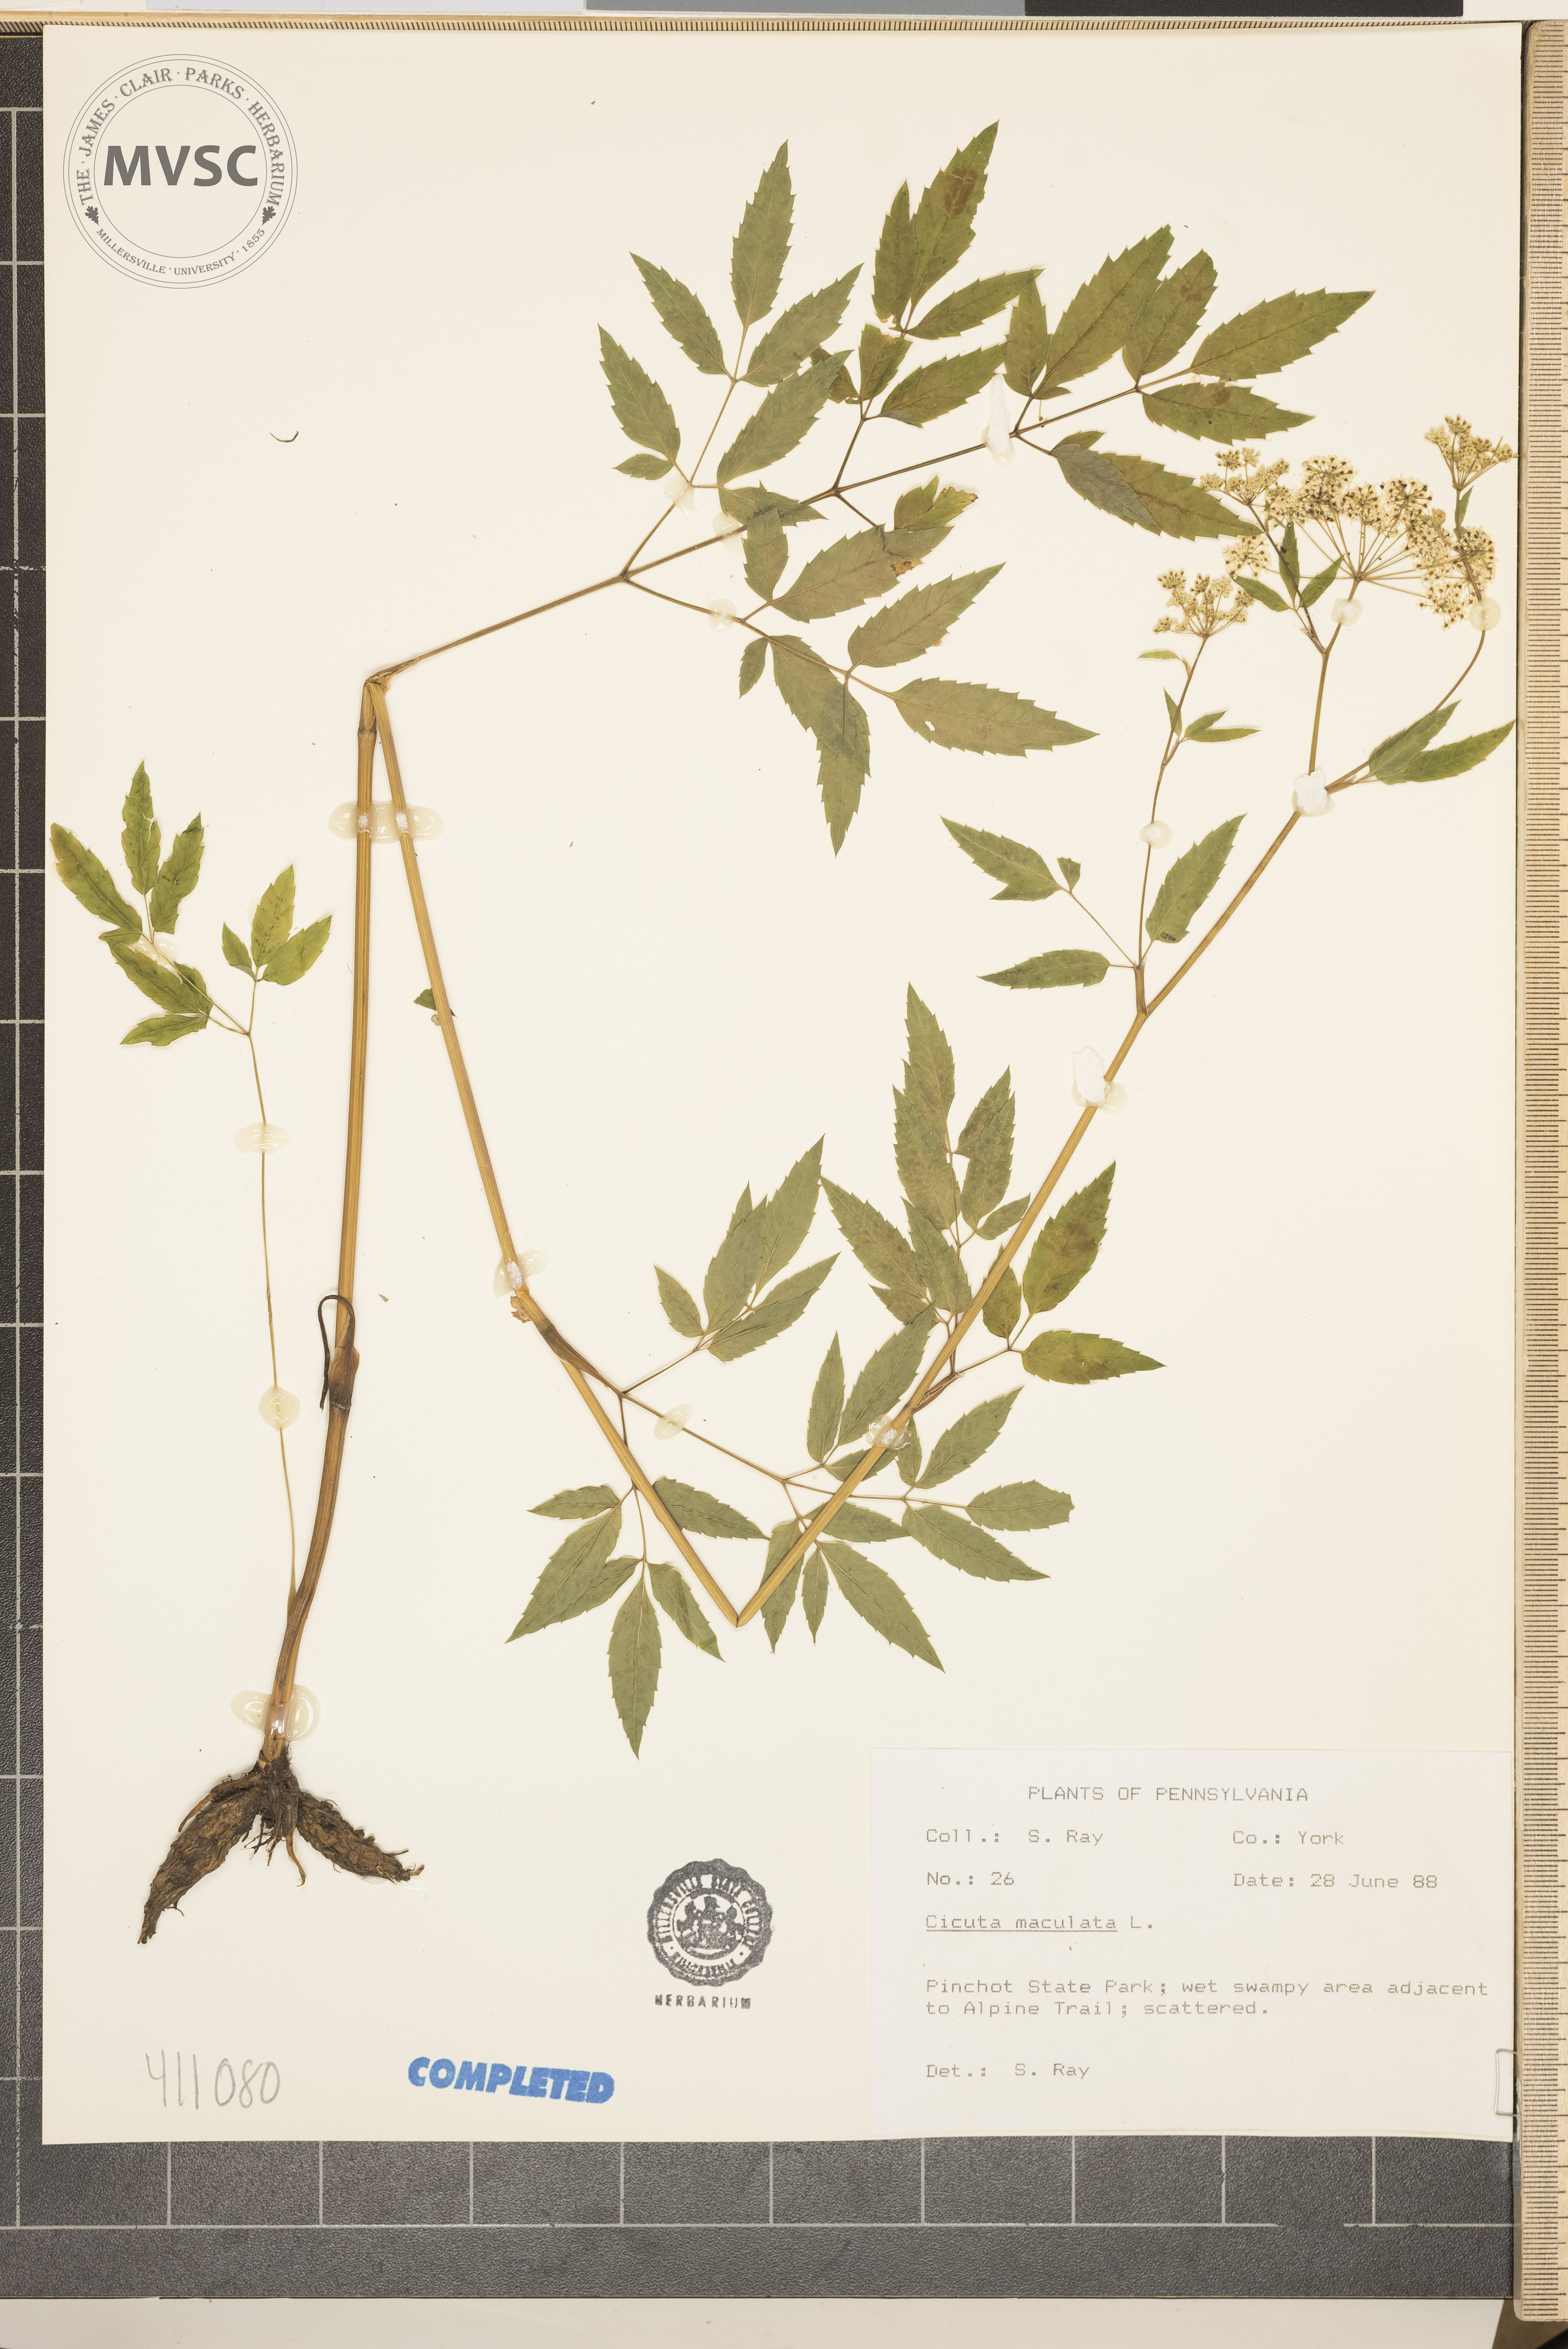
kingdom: Plantae
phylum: Tracheophyta
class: Magnoliopsida
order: Apiales
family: Apiaceae
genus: Cicuta
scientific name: Cicuta maculata
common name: Spotted cowbane
